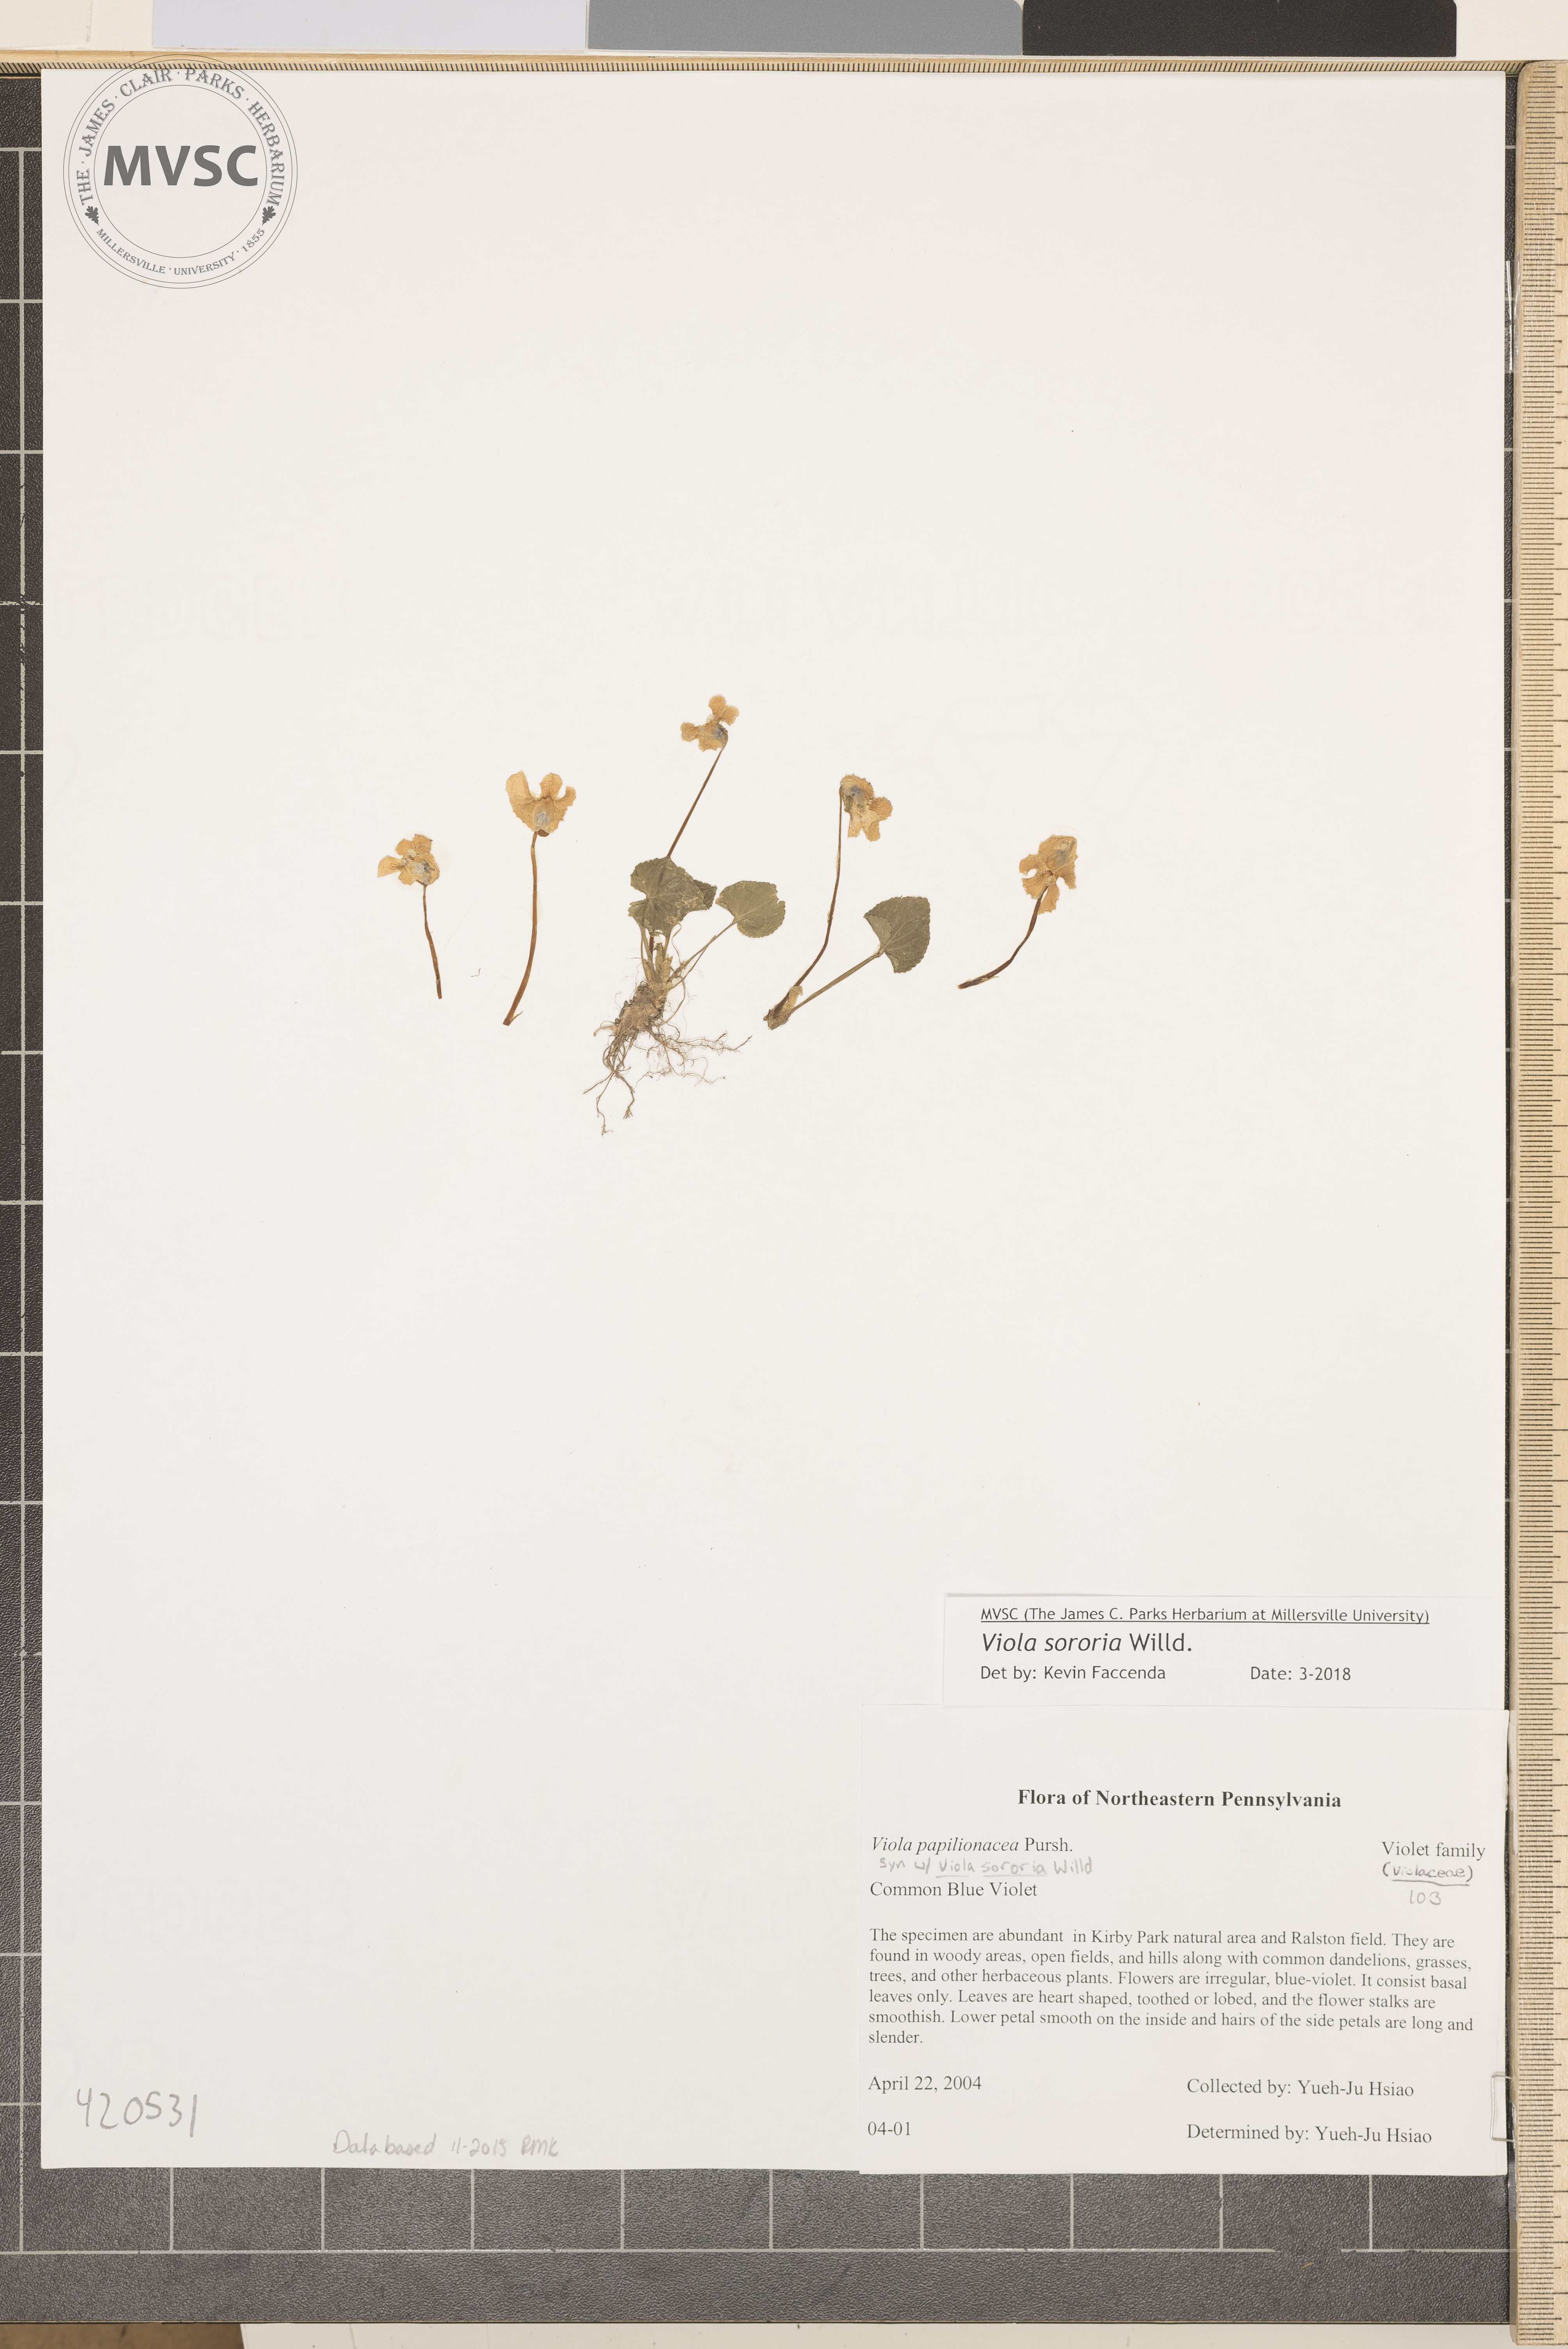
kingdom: Plantae
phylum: Tracheophyta
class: Magnoliopsida
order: Malpighiales
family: Violaceae
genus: Viola
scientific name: Viola sororia
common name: Common blue violet
